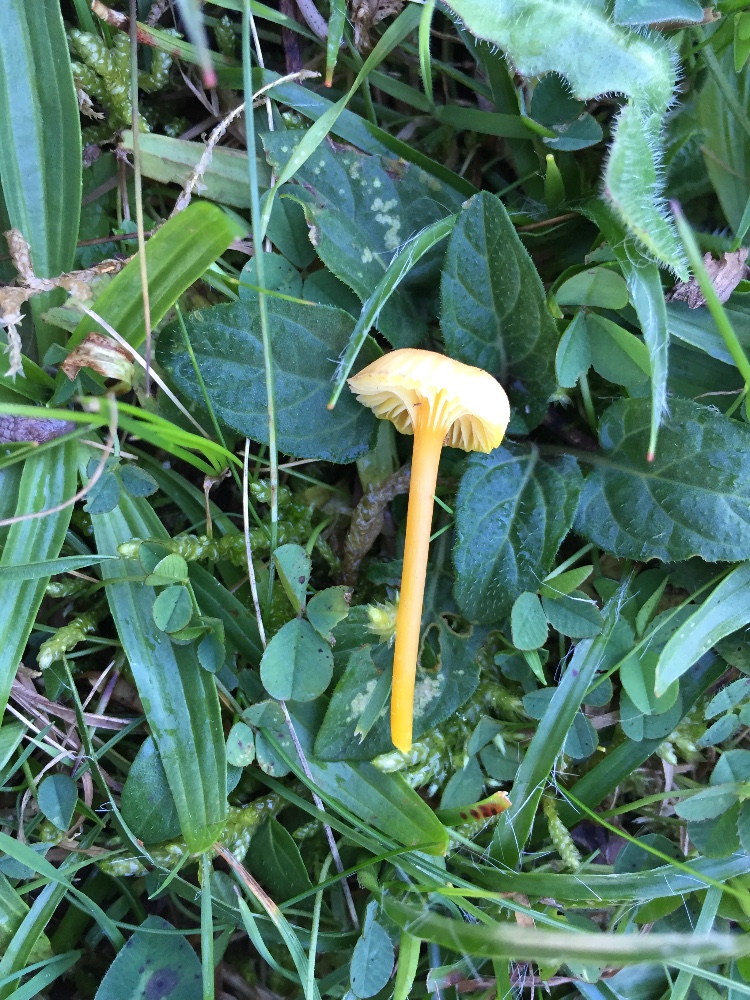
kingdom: Fungi
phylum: Basidiomycota
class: Agaricomycetes
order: Agaricales
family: Hygrophoraceae
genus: Hygrocybe
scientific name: Hygrocybe cantharellus
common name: kantarel-vokshat
